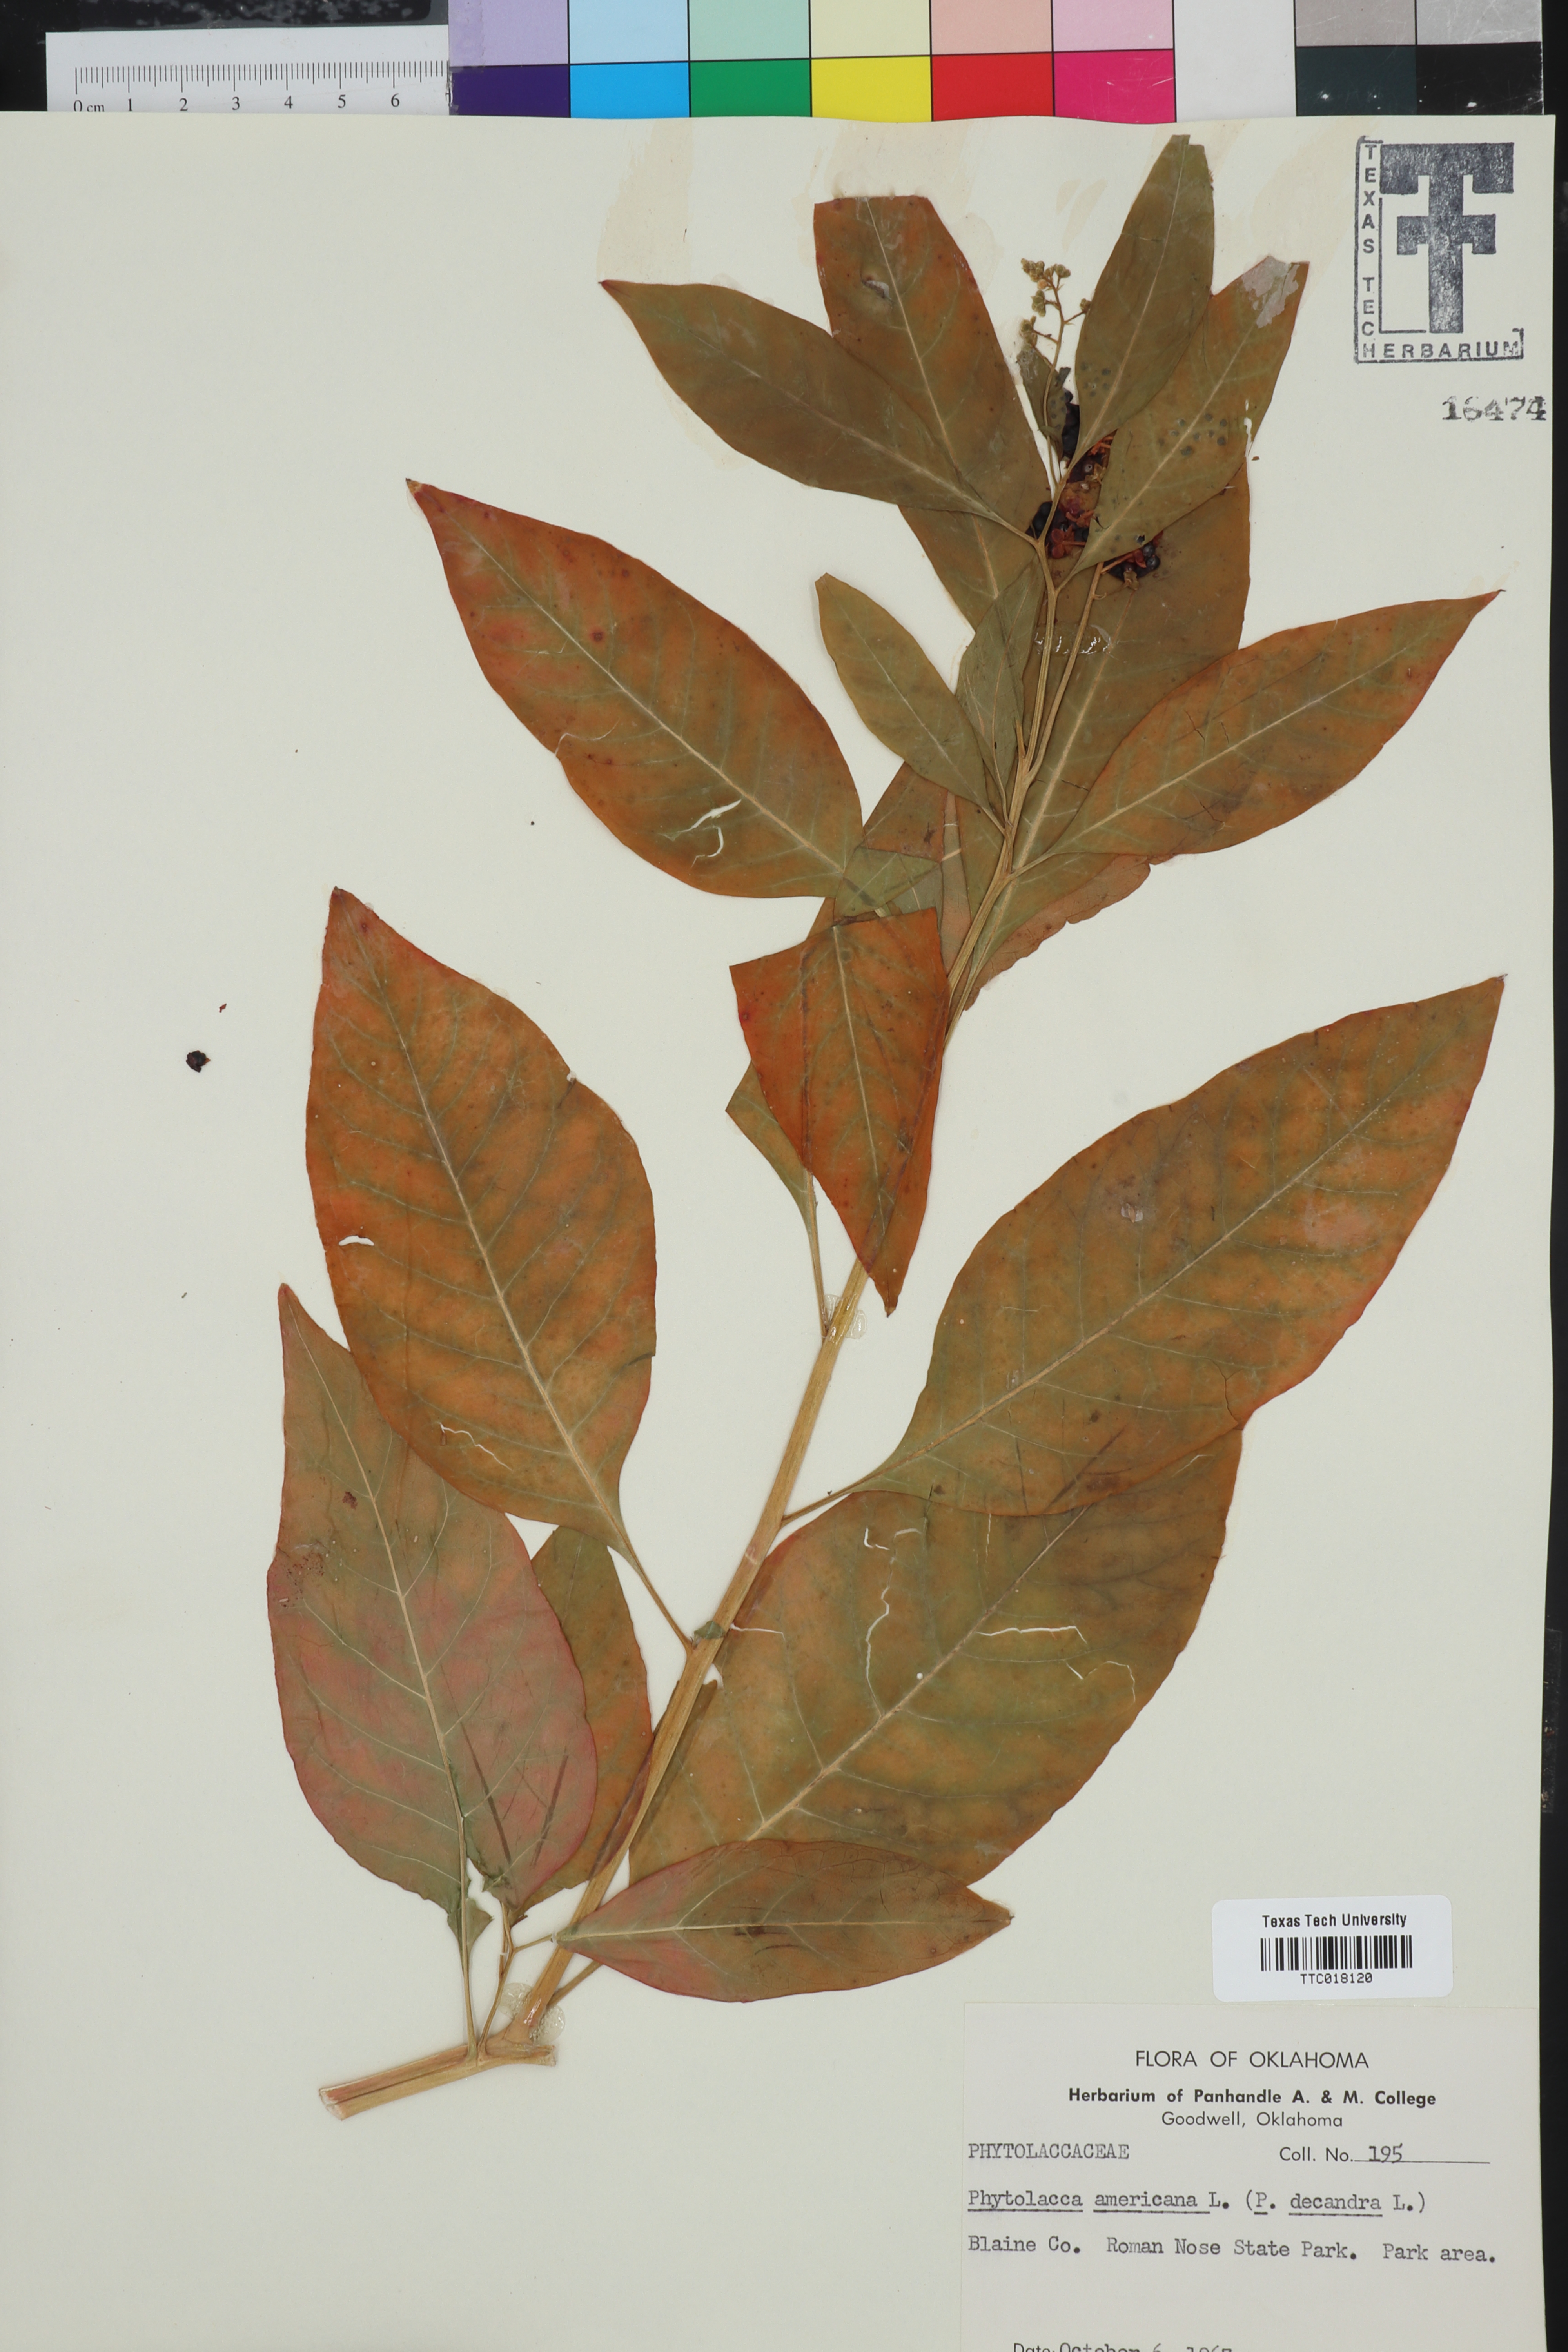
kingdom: Plantae
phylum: Tracheophyta
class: Magnoliopsida
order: Caryophyllales
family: Phytolaccaceae
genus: Phytolacca
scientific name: Phytolacca americana
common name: American pokeweed
